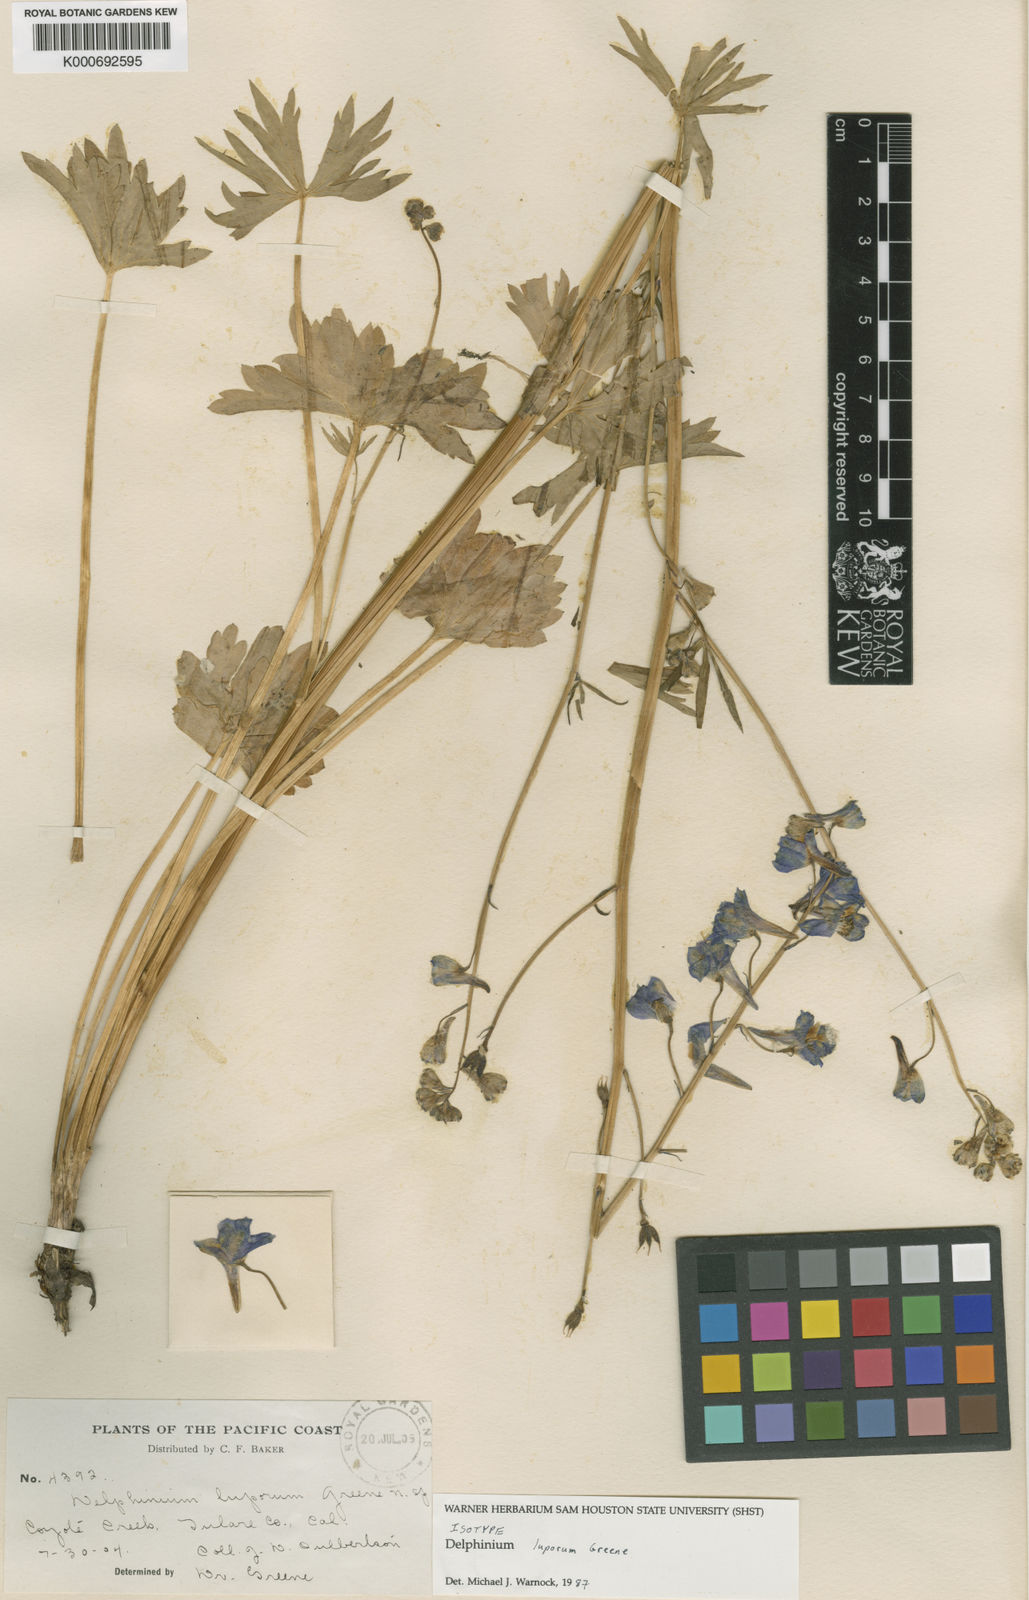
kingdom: Plantae
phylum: Tracheophyta
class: Magnoliopsida
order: Ranunculales
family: Ranunculaceae
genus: Delphinium
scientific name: Delphinium polycladon
